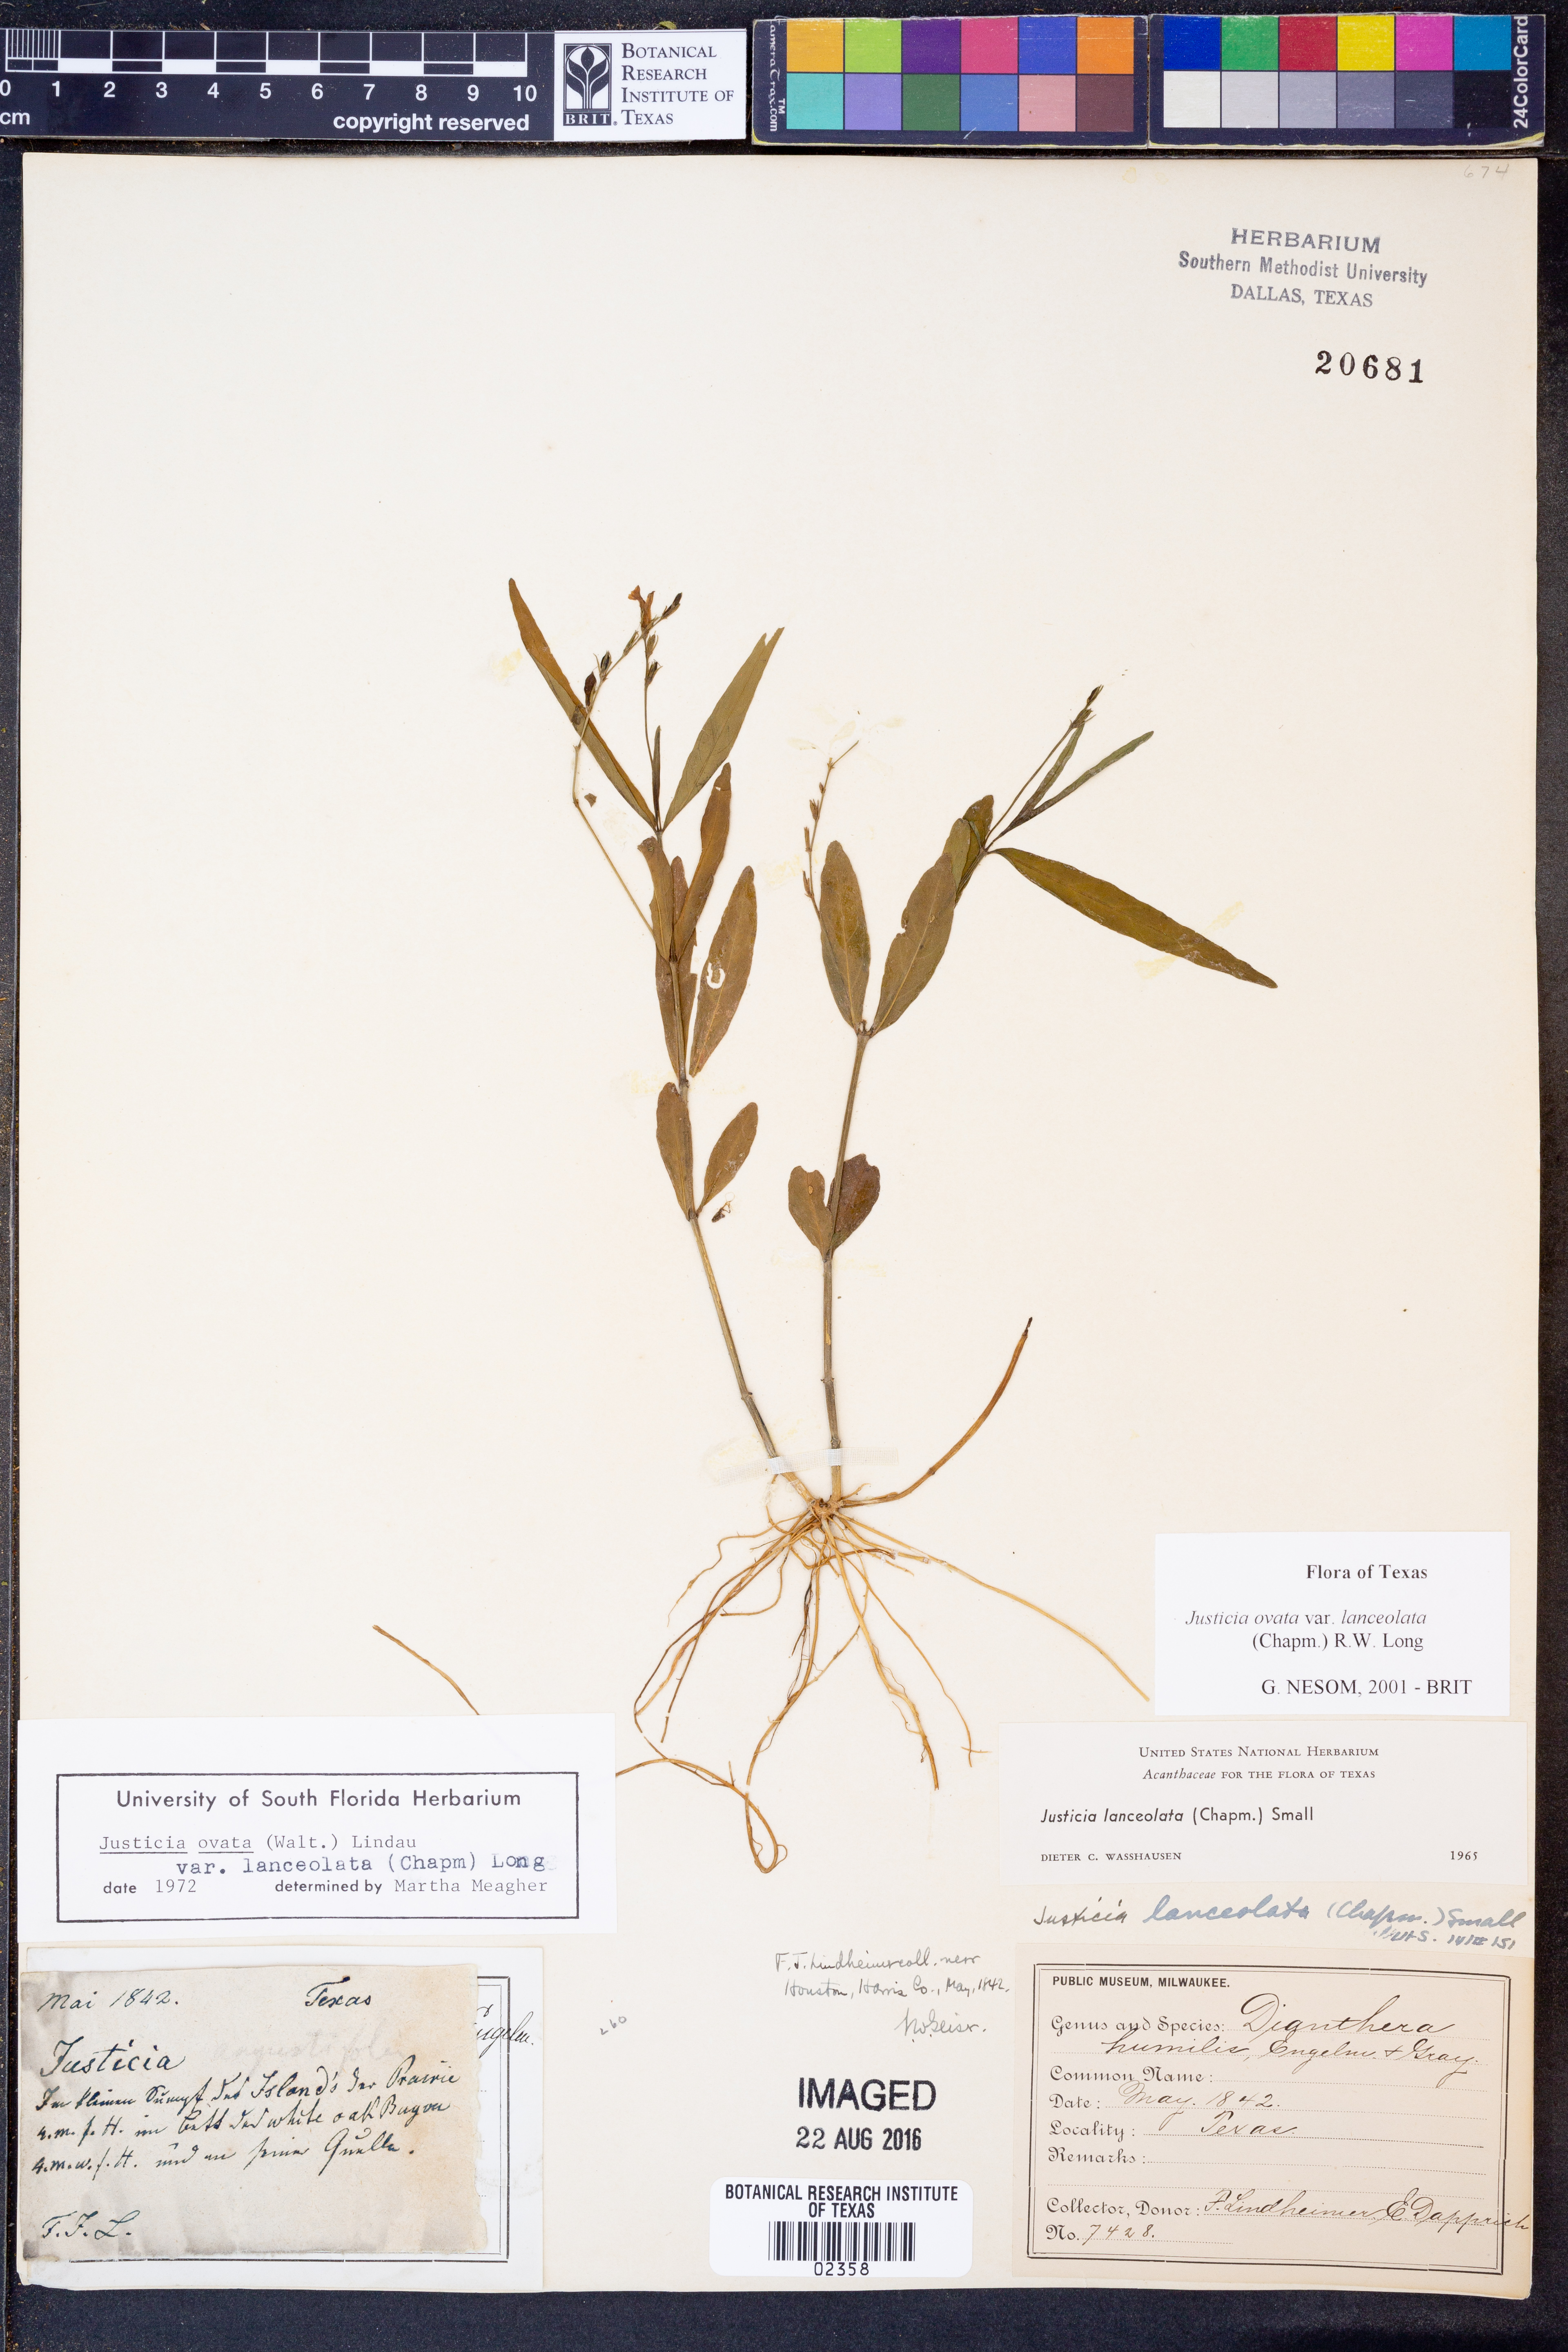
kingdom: Plantae
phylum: Tracheophyta
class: Magnoliopsida
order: Lamiales
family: Acanthaceae
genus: Justicia
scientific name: Justicia lanceolata
